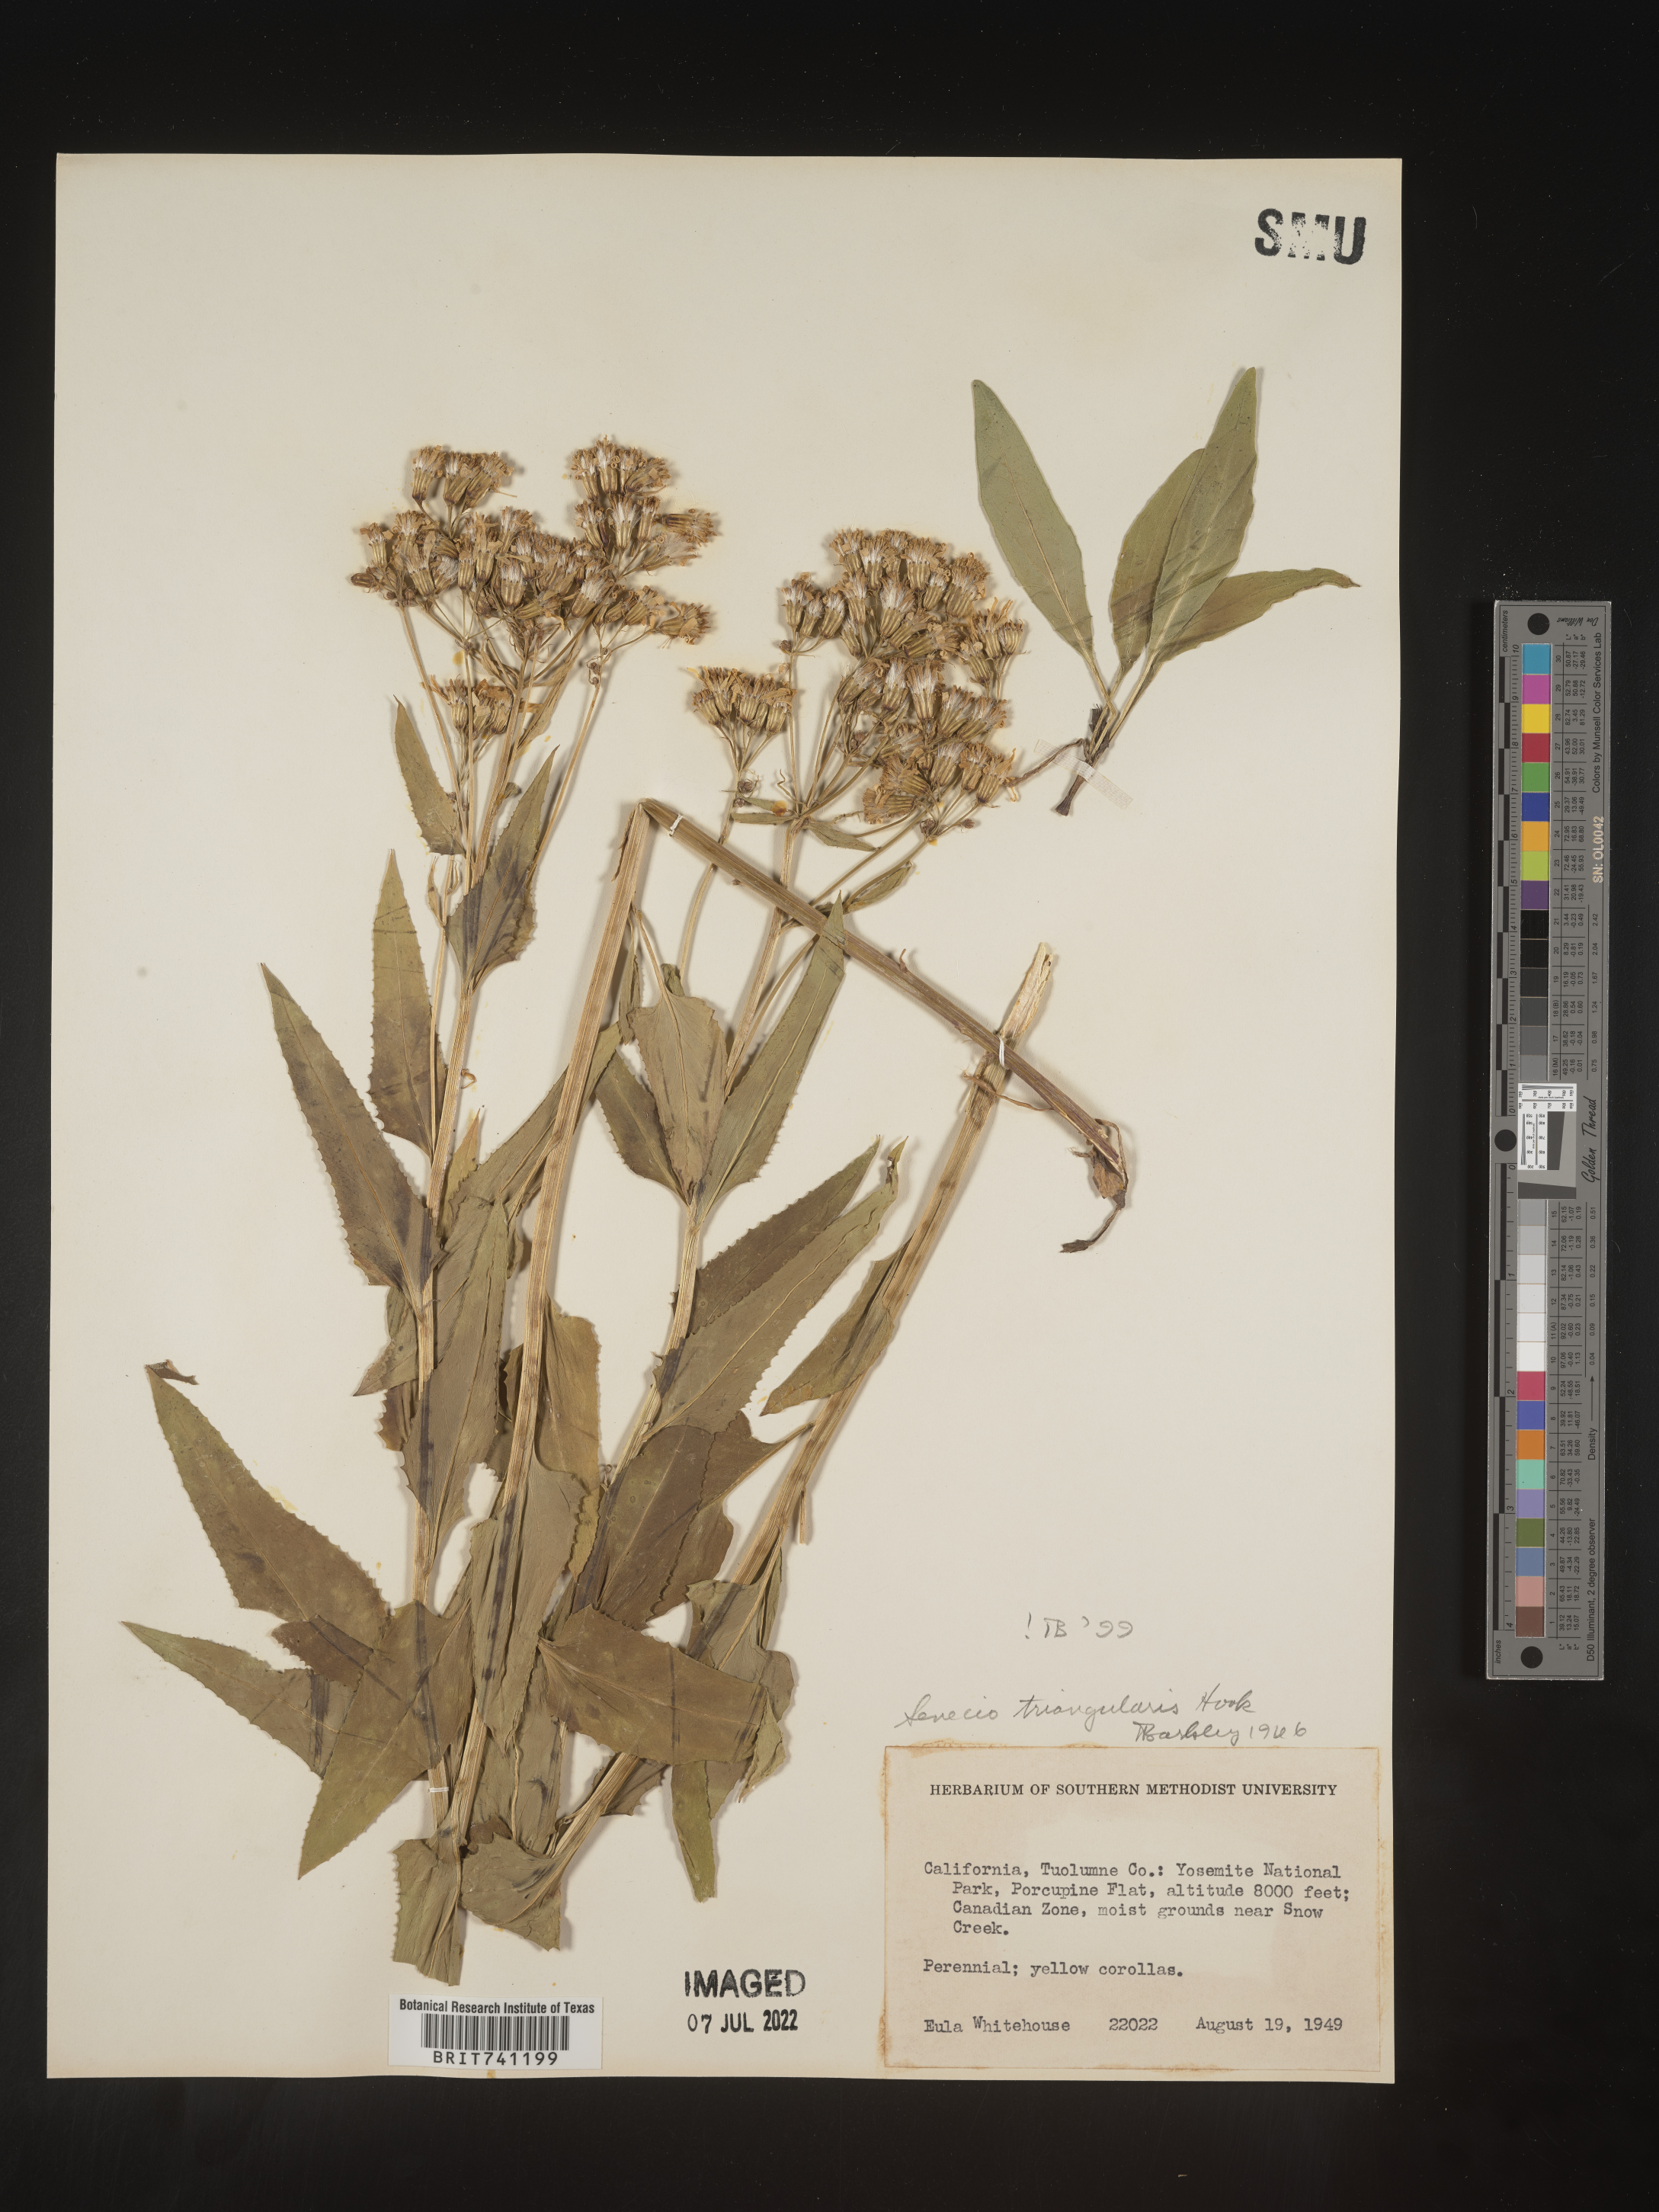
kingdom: Plantae
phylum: Tracheophyta
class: Magnoliopsida
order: Asterales
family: Asteraceae
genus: Senecio
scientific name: Senecio triangularis
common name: Arrowleaf butterweed
